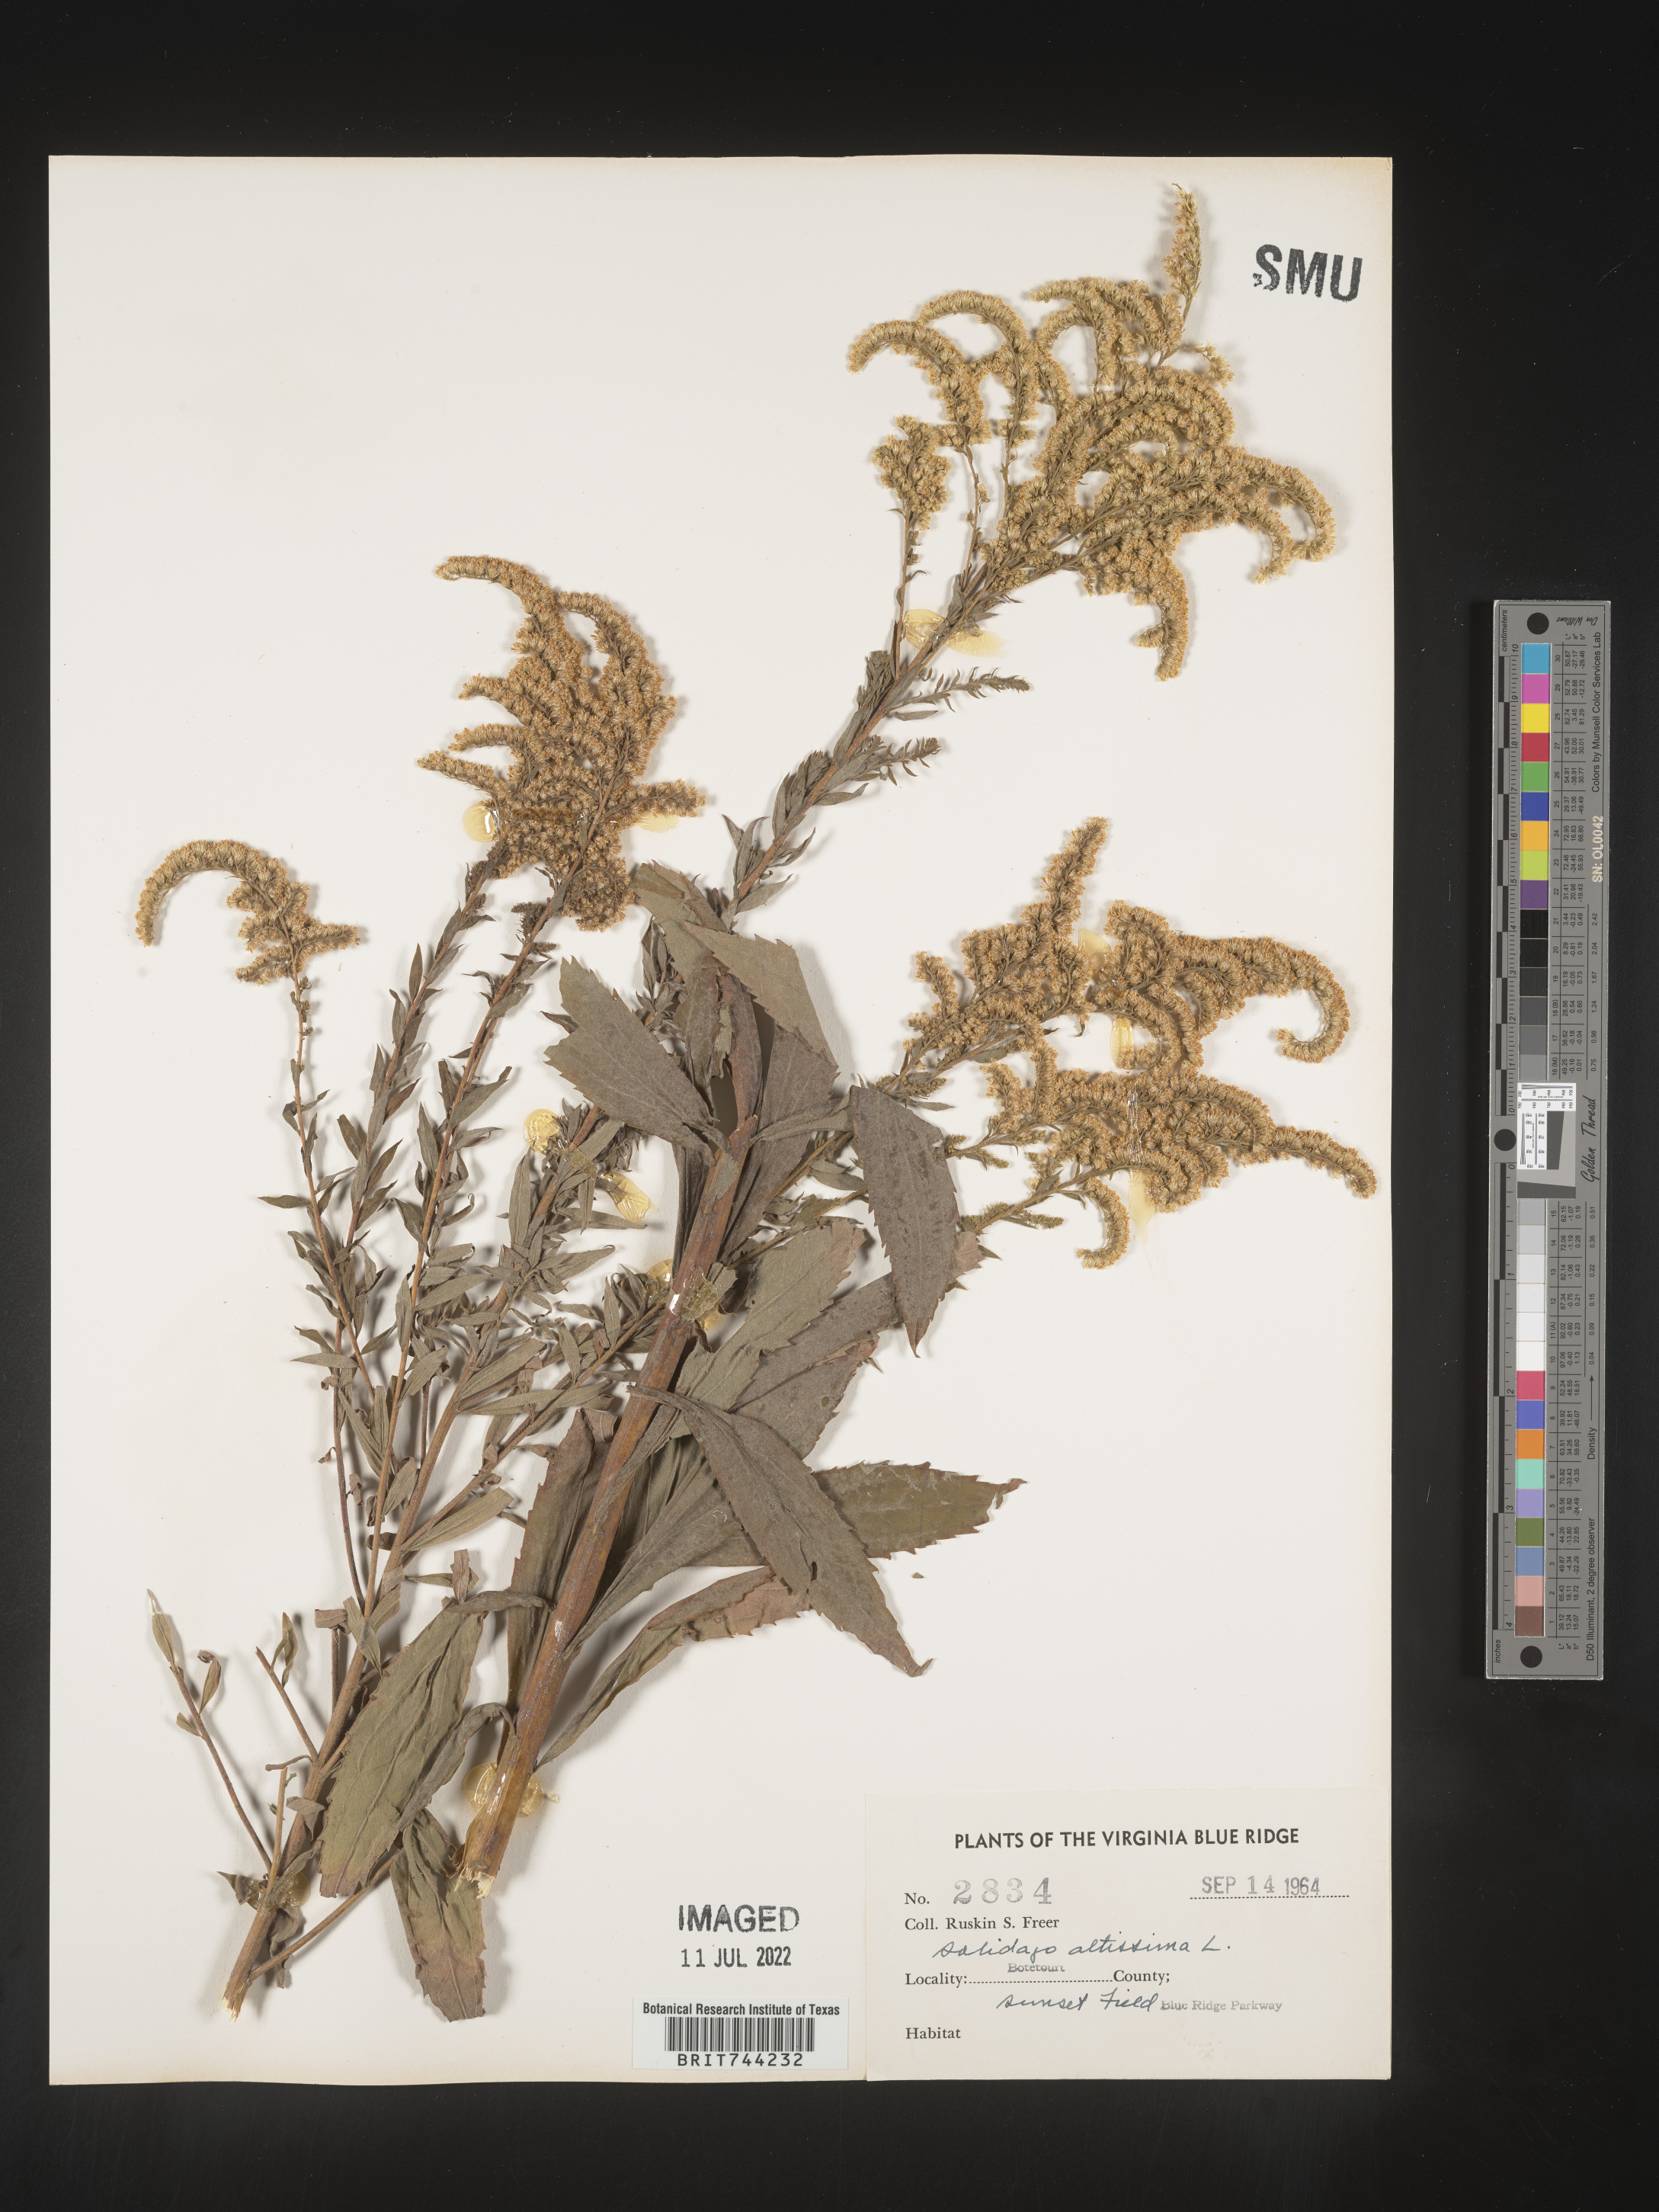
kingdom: Plantae
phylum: Tracheophyta
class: Magnoliopsida
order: Asterales
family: Asteraceae
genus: Solidago
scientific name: Solidago altissima
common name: Late goldenrod
